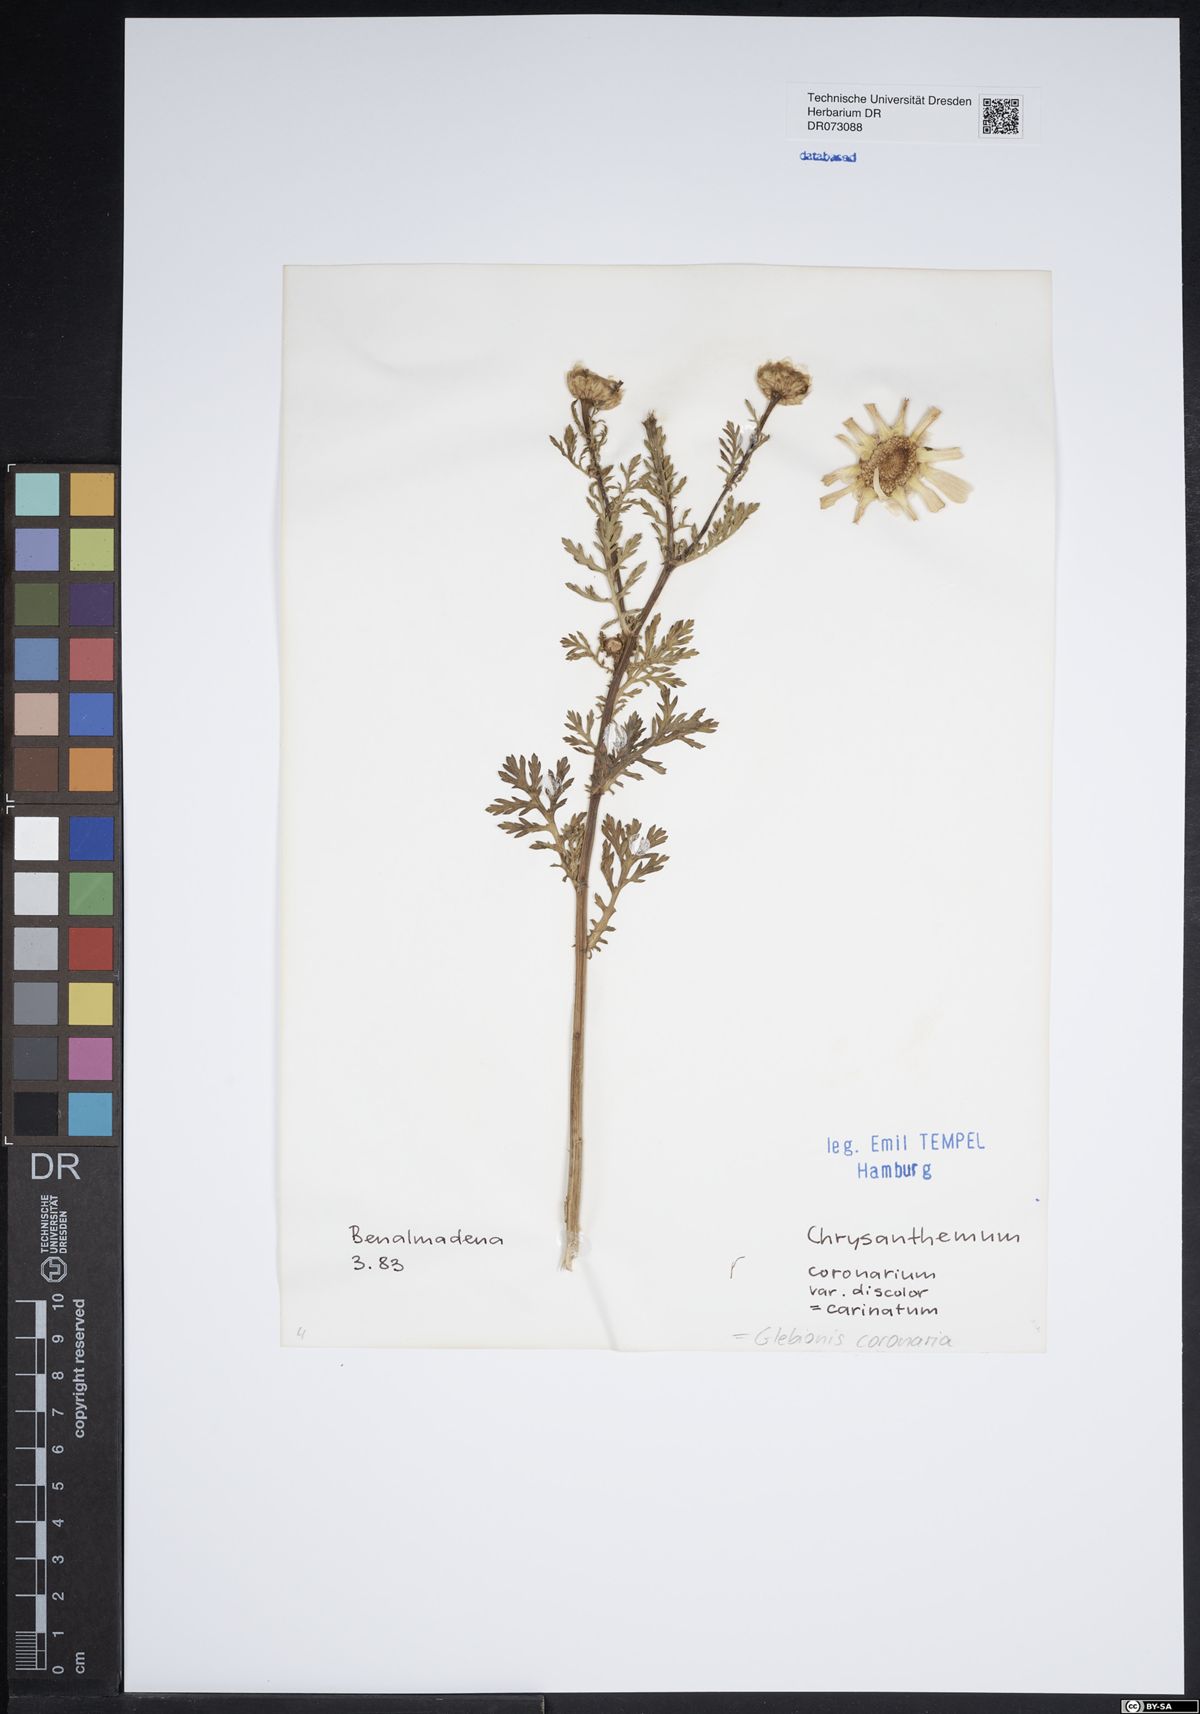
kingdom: Plantae
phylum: Tracheophyta
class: Magnoliopsida
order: Asterales
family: Asteraceae
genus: Pallenis
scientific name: Pallenis spinosa
